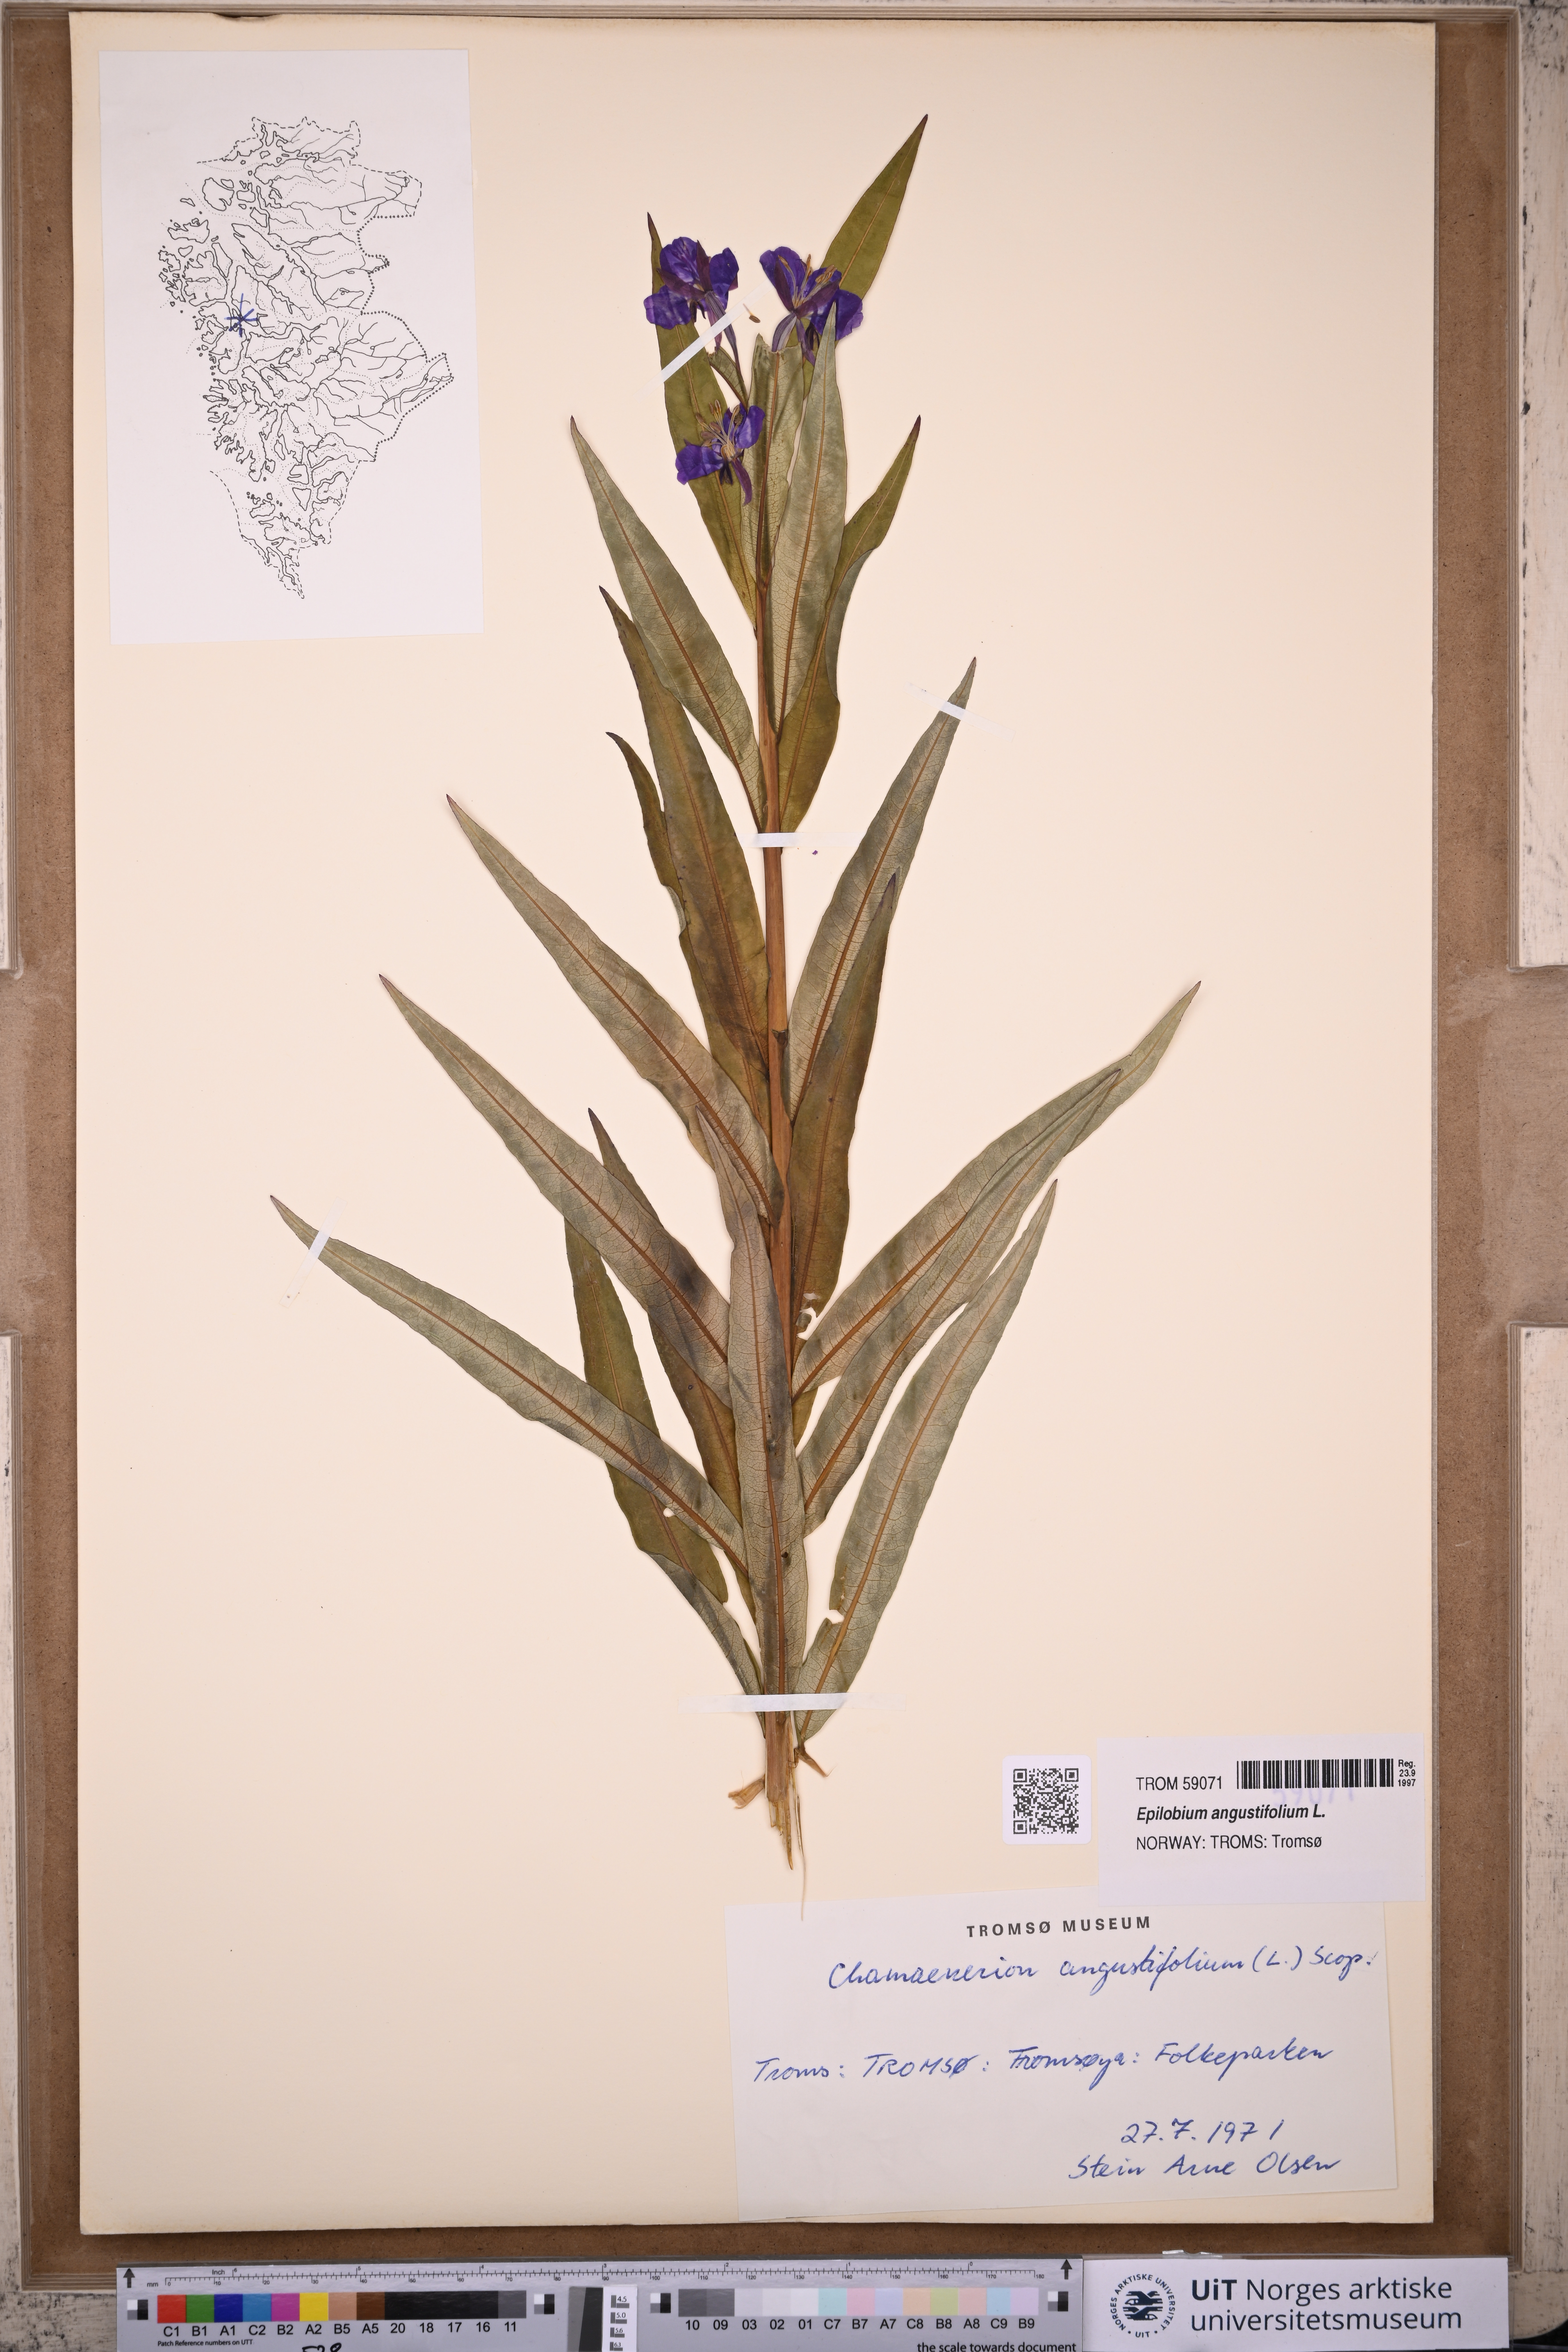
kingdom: Plantae
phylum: Tracheophyta
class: Magnoliopsida
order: Myrtales
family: Onagraceae
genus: Chamaenerion
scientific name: Chamaenerion angustifolium
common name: Fireweed
